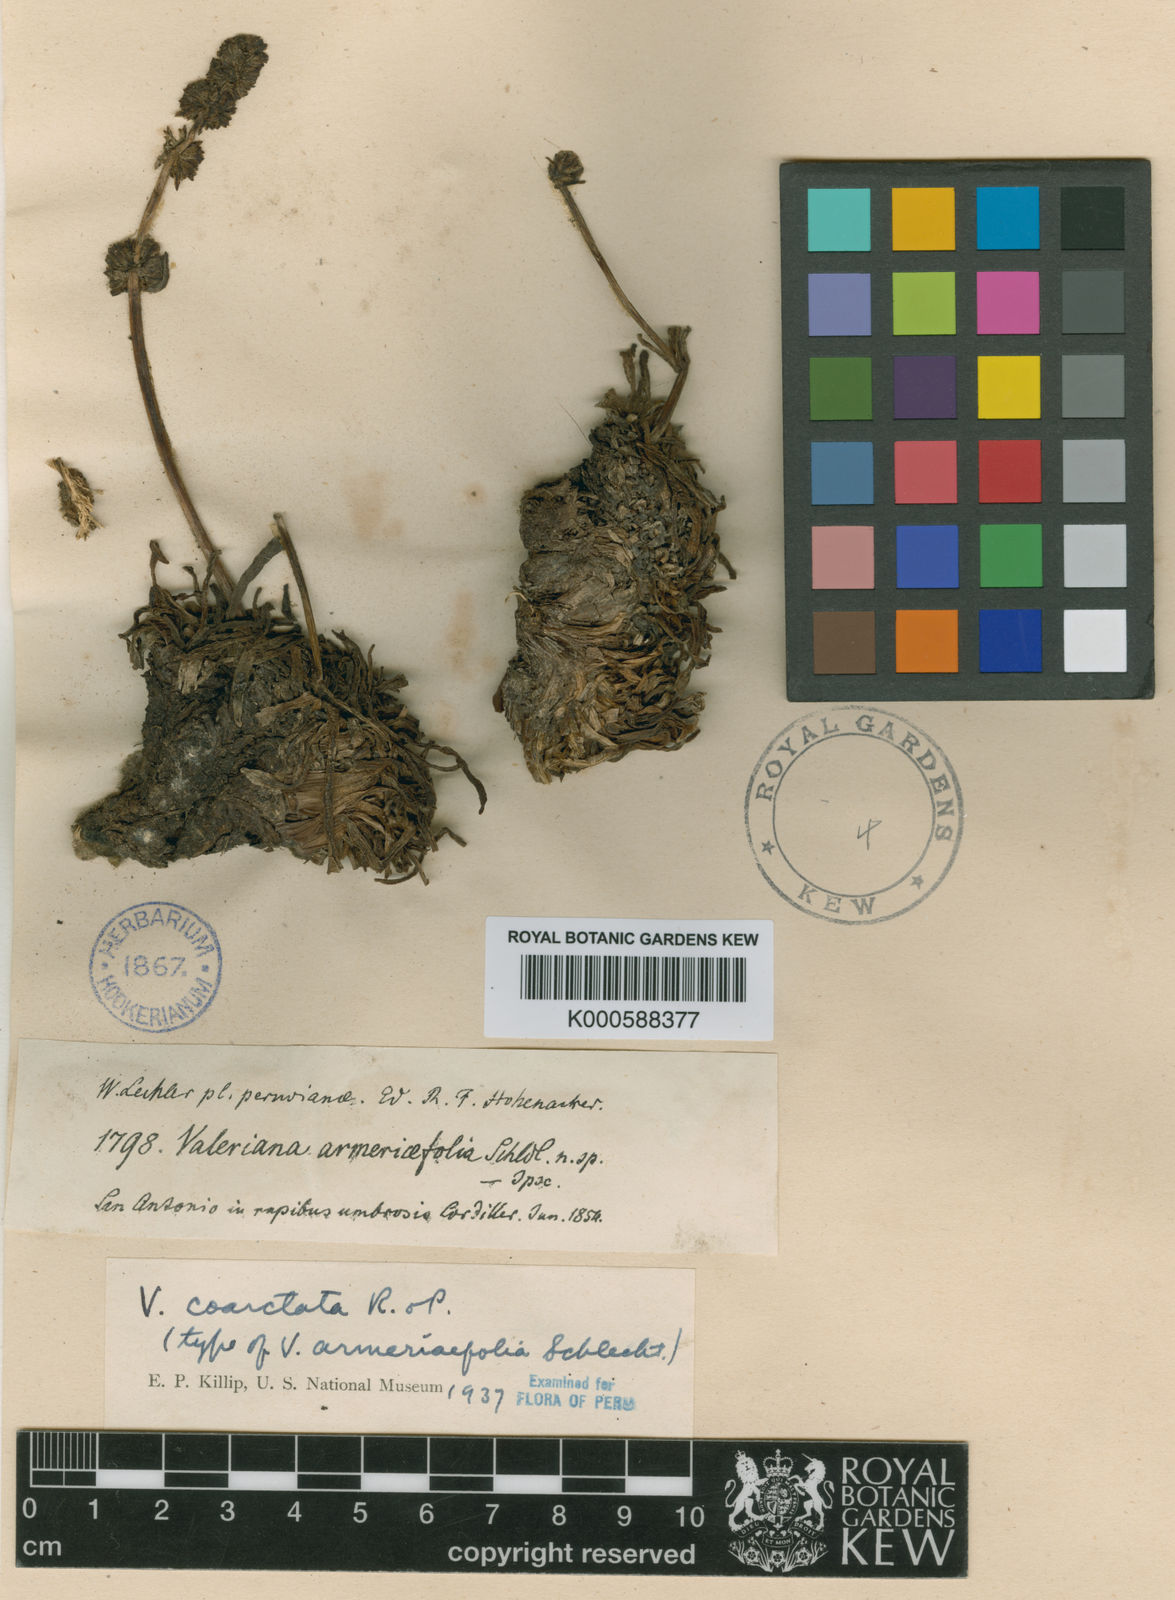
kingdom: Plantae
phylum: Tracheophyta
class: Magnoliopsida
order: Dipsacales
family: Caprifoliaceae
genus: Valeriana
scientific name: Valeriana coarctata
